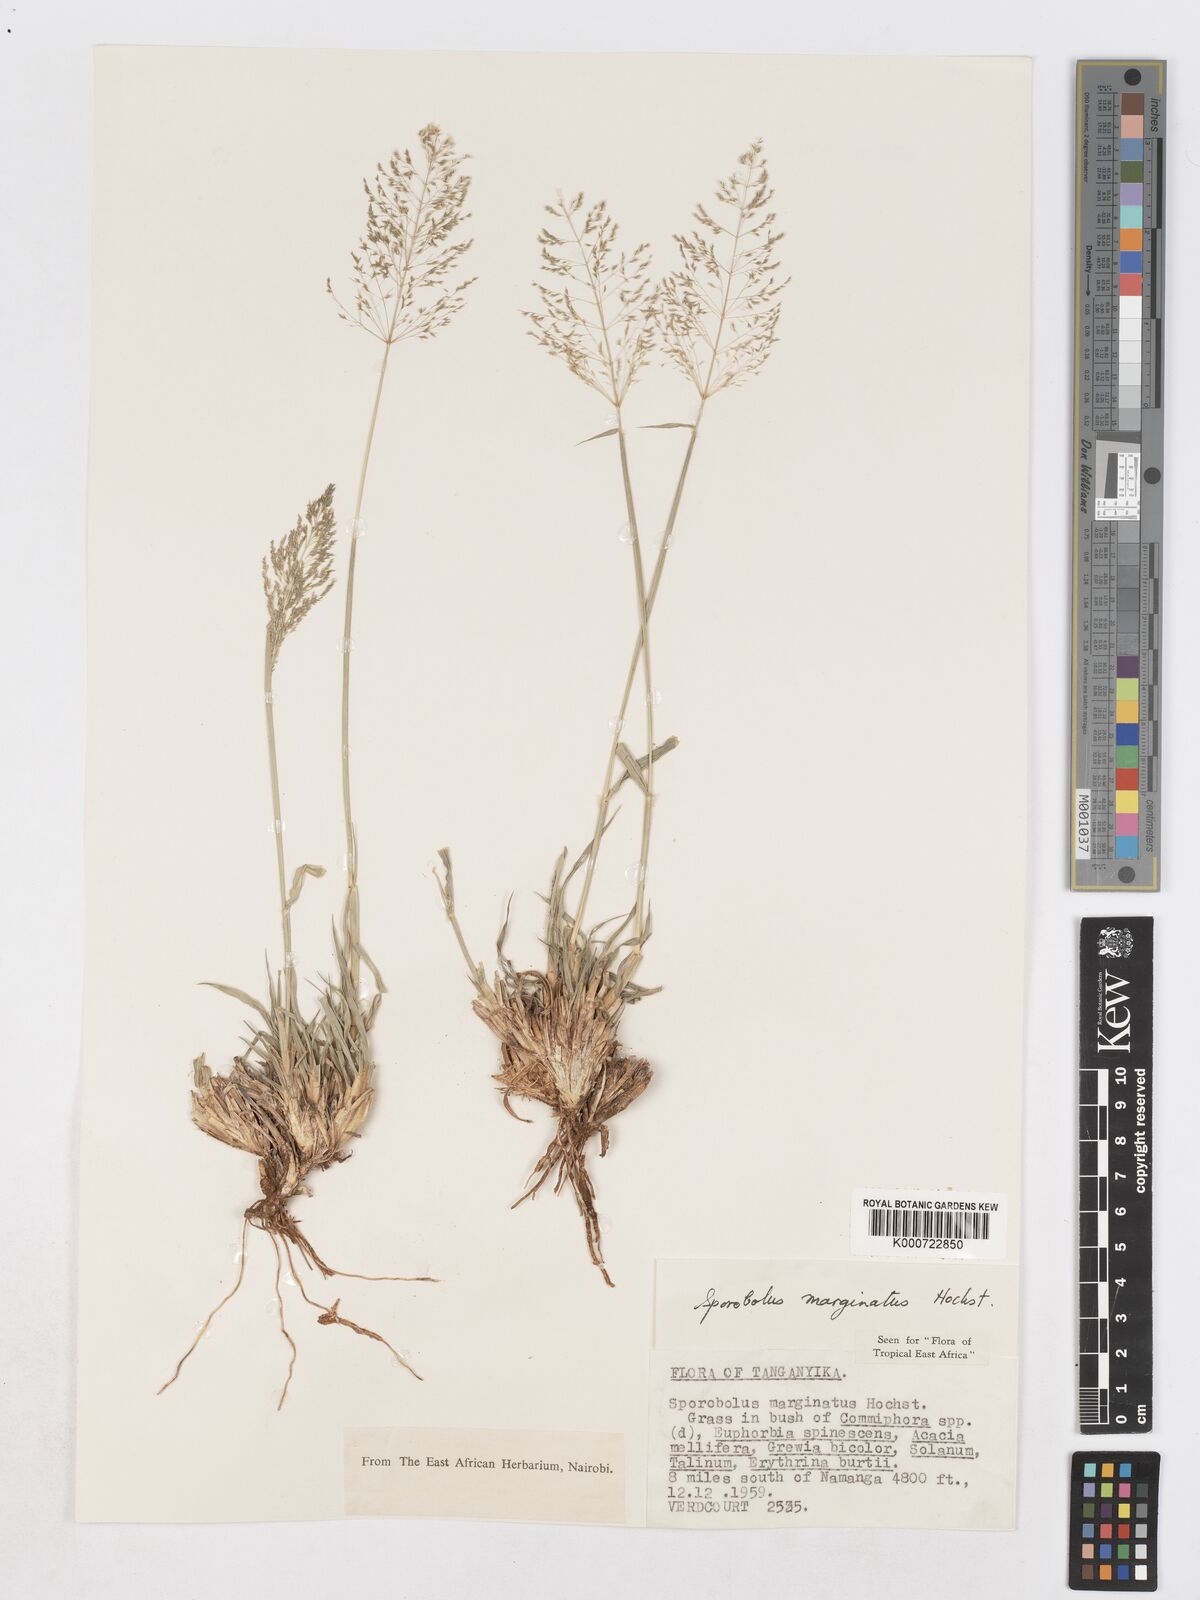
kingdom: Plantae
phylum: Tracheophyta
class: Liliopsida
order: Poales
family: Poaceae
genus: Sporobolus
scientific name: Sporobolus ioclados
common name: Pan dropseed
